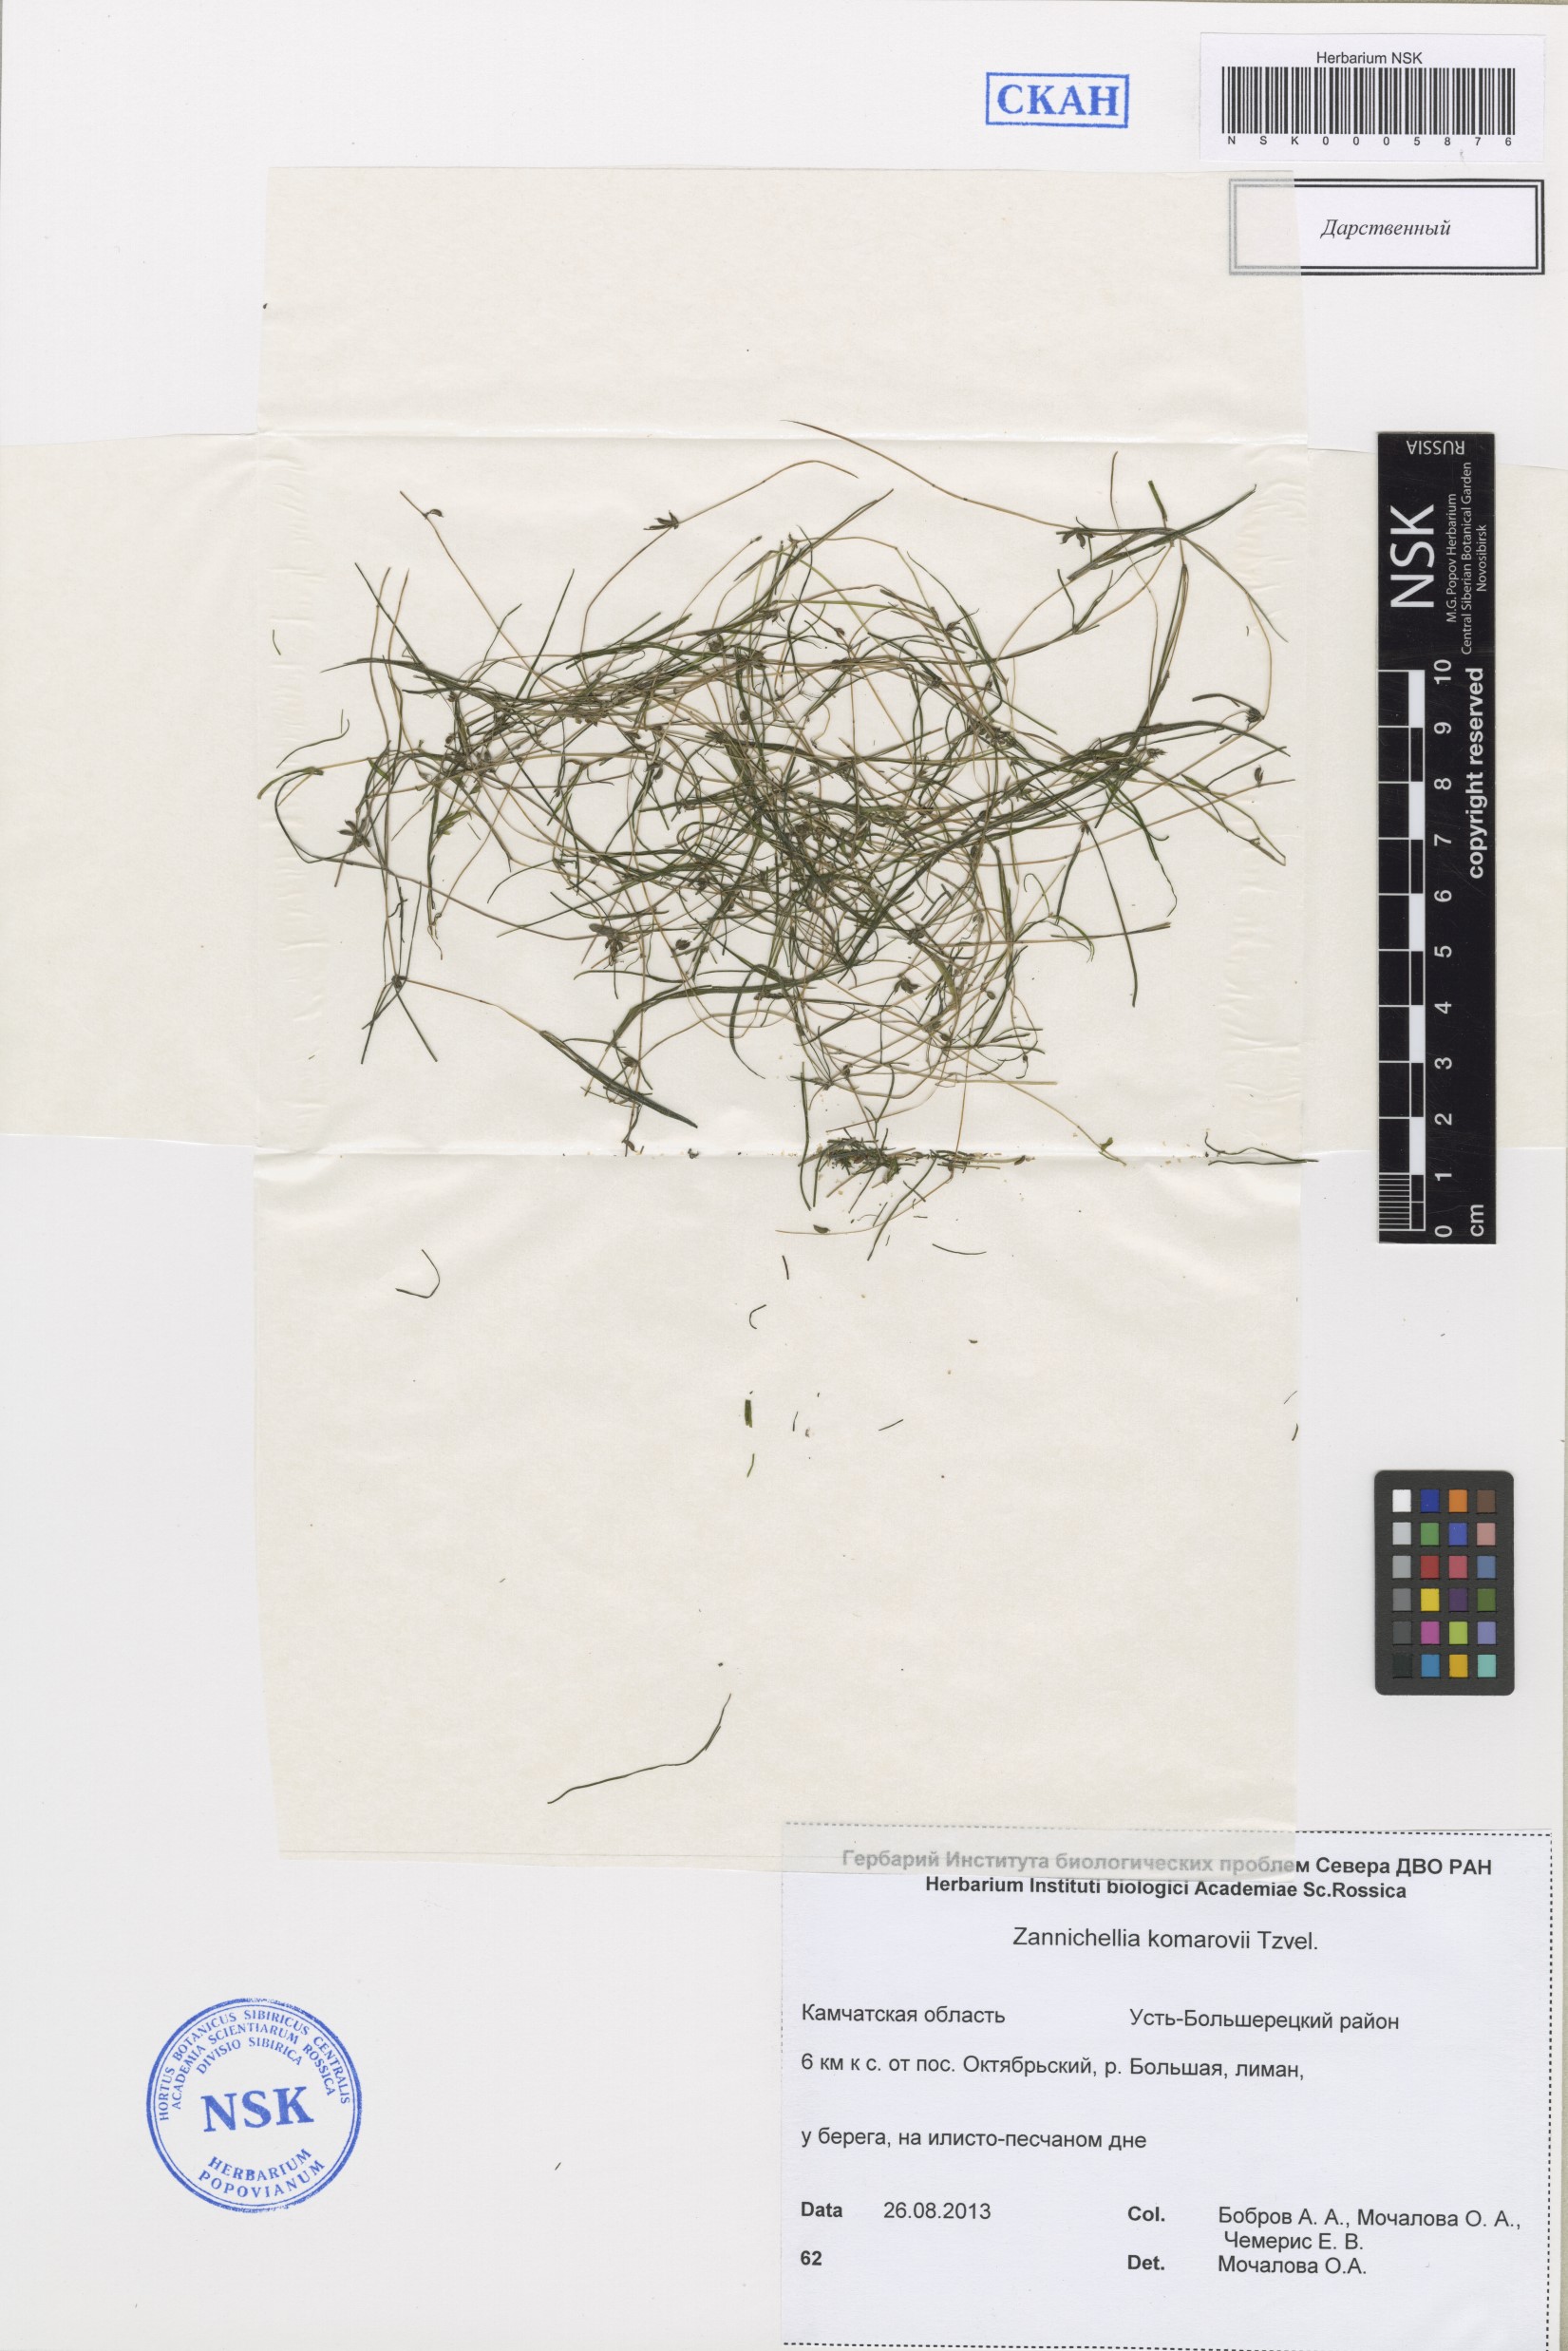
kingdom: Plantae
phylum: Tracheophyta
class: Liliopsida
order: Alismatales
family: Potamogetonaceae
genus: Zannichellia
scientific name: Zannichellia palustris
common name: Horned pondweed
